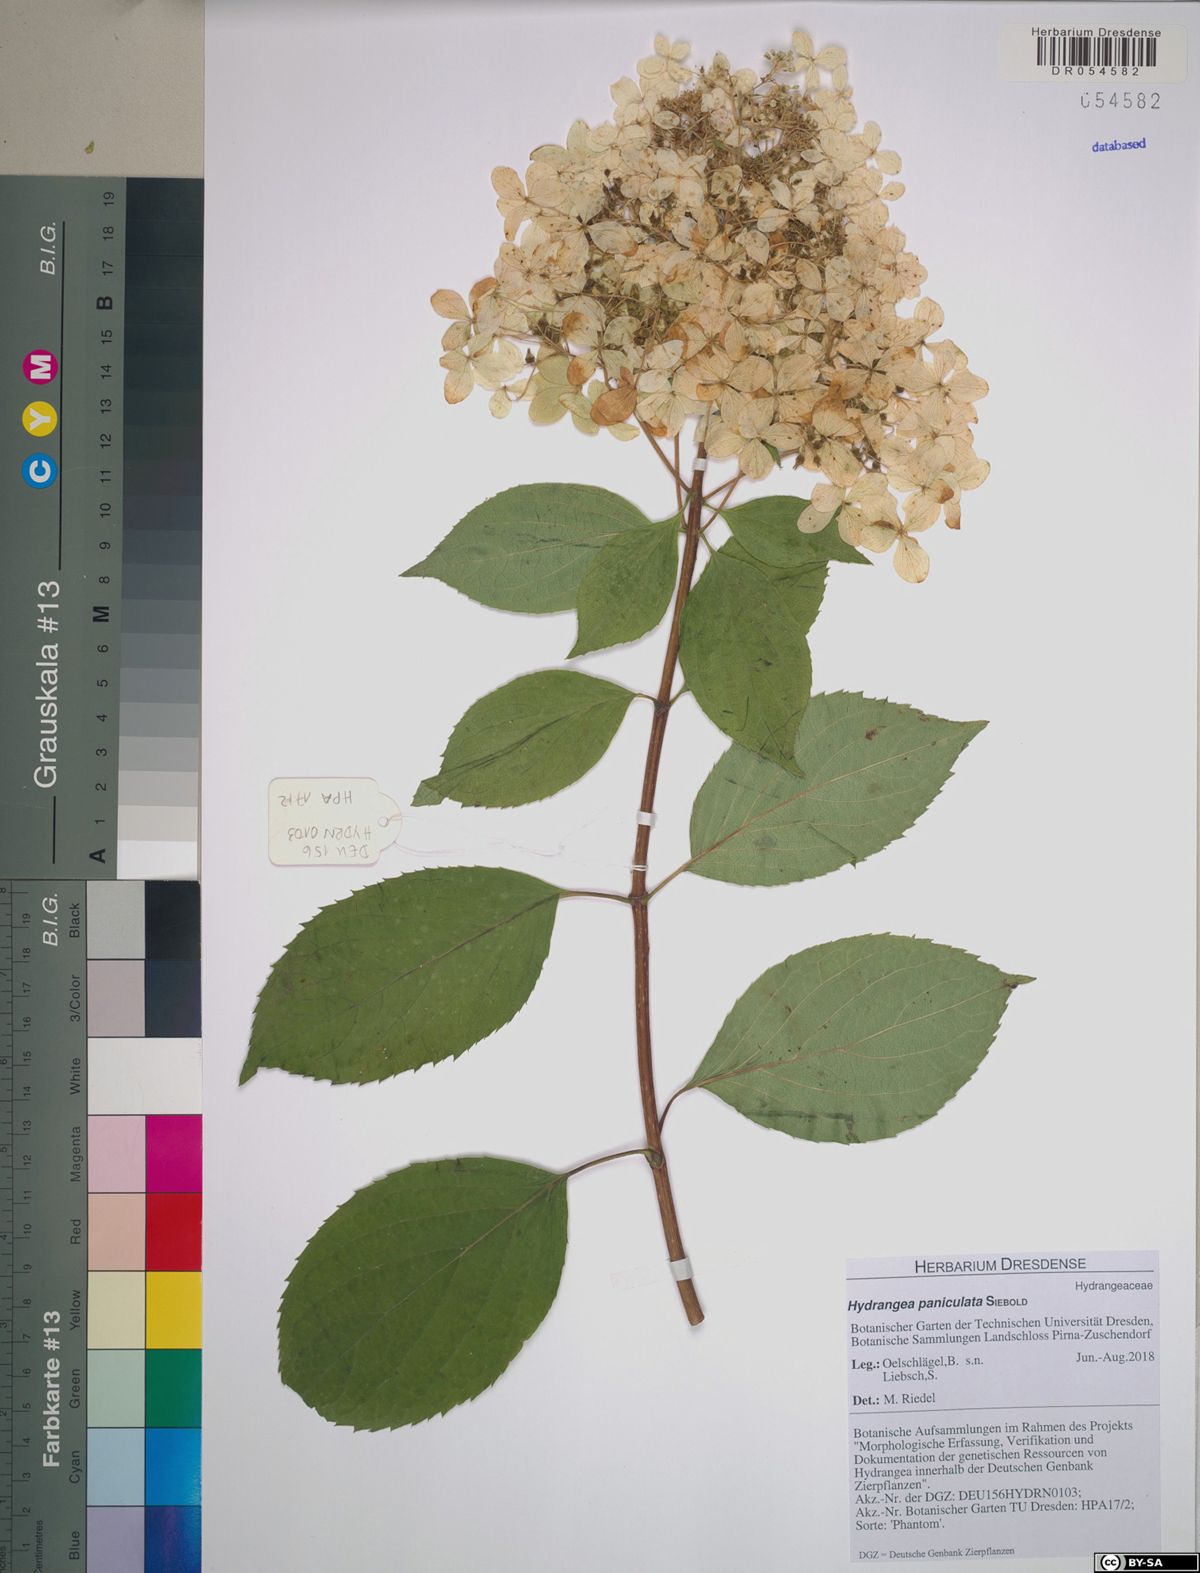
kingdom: Plantae
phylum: Tracheophyta
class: Magnoliopsida
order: Cornales
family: Hydrangeaceae
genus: Hydrangea
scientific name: Hydrangea paniculata
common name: Panicled hydrangea
